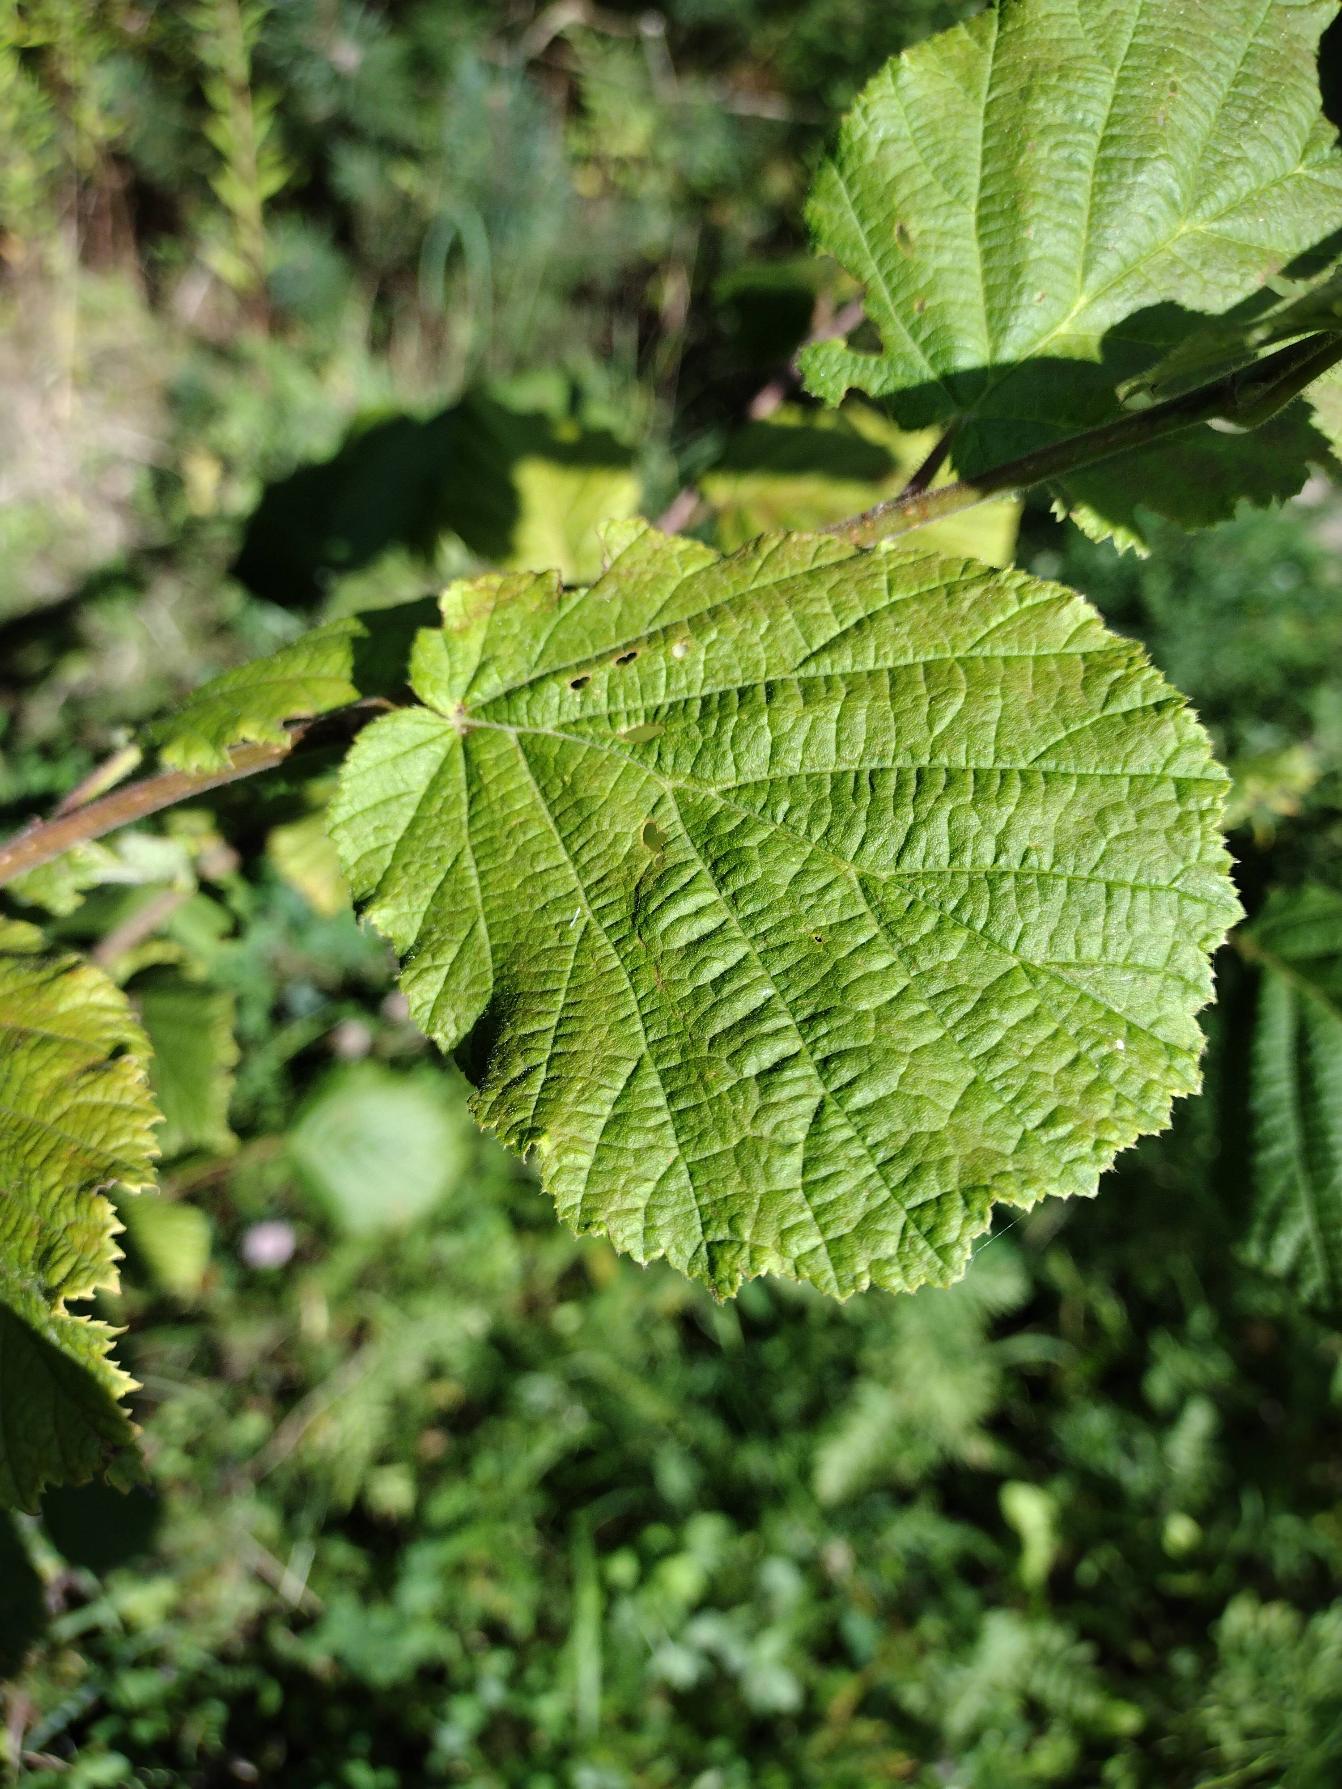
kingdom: Plantae
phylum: Tracheophyta
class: Magnoliopsida
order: Fagales
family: Betulaceae
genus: Corylus
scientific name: Corylus avellana
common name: Hassel
